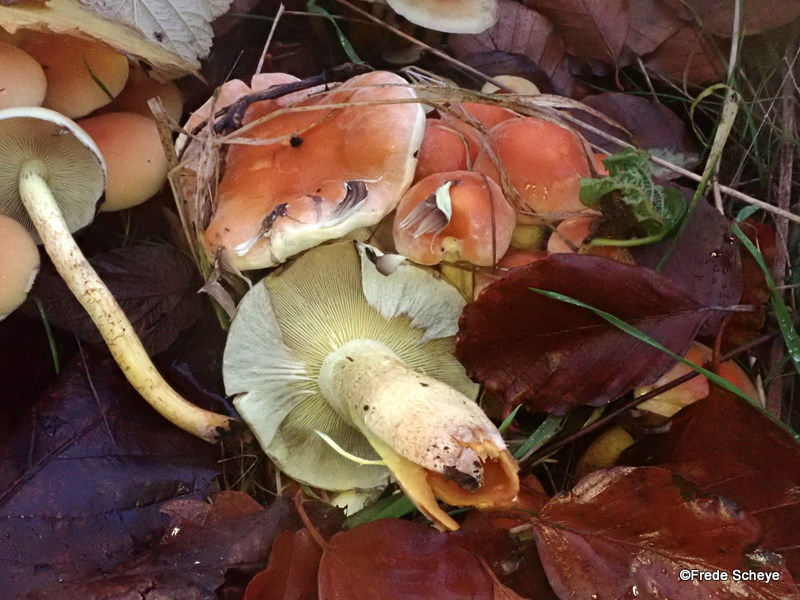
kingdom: Fungi
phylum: Basidiomycota
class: Agaricomycetes
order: Agaricales
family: Strophariaceae
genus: Hypholoma
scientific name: Hypholoma lateritium
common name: teglrød svovlhat
